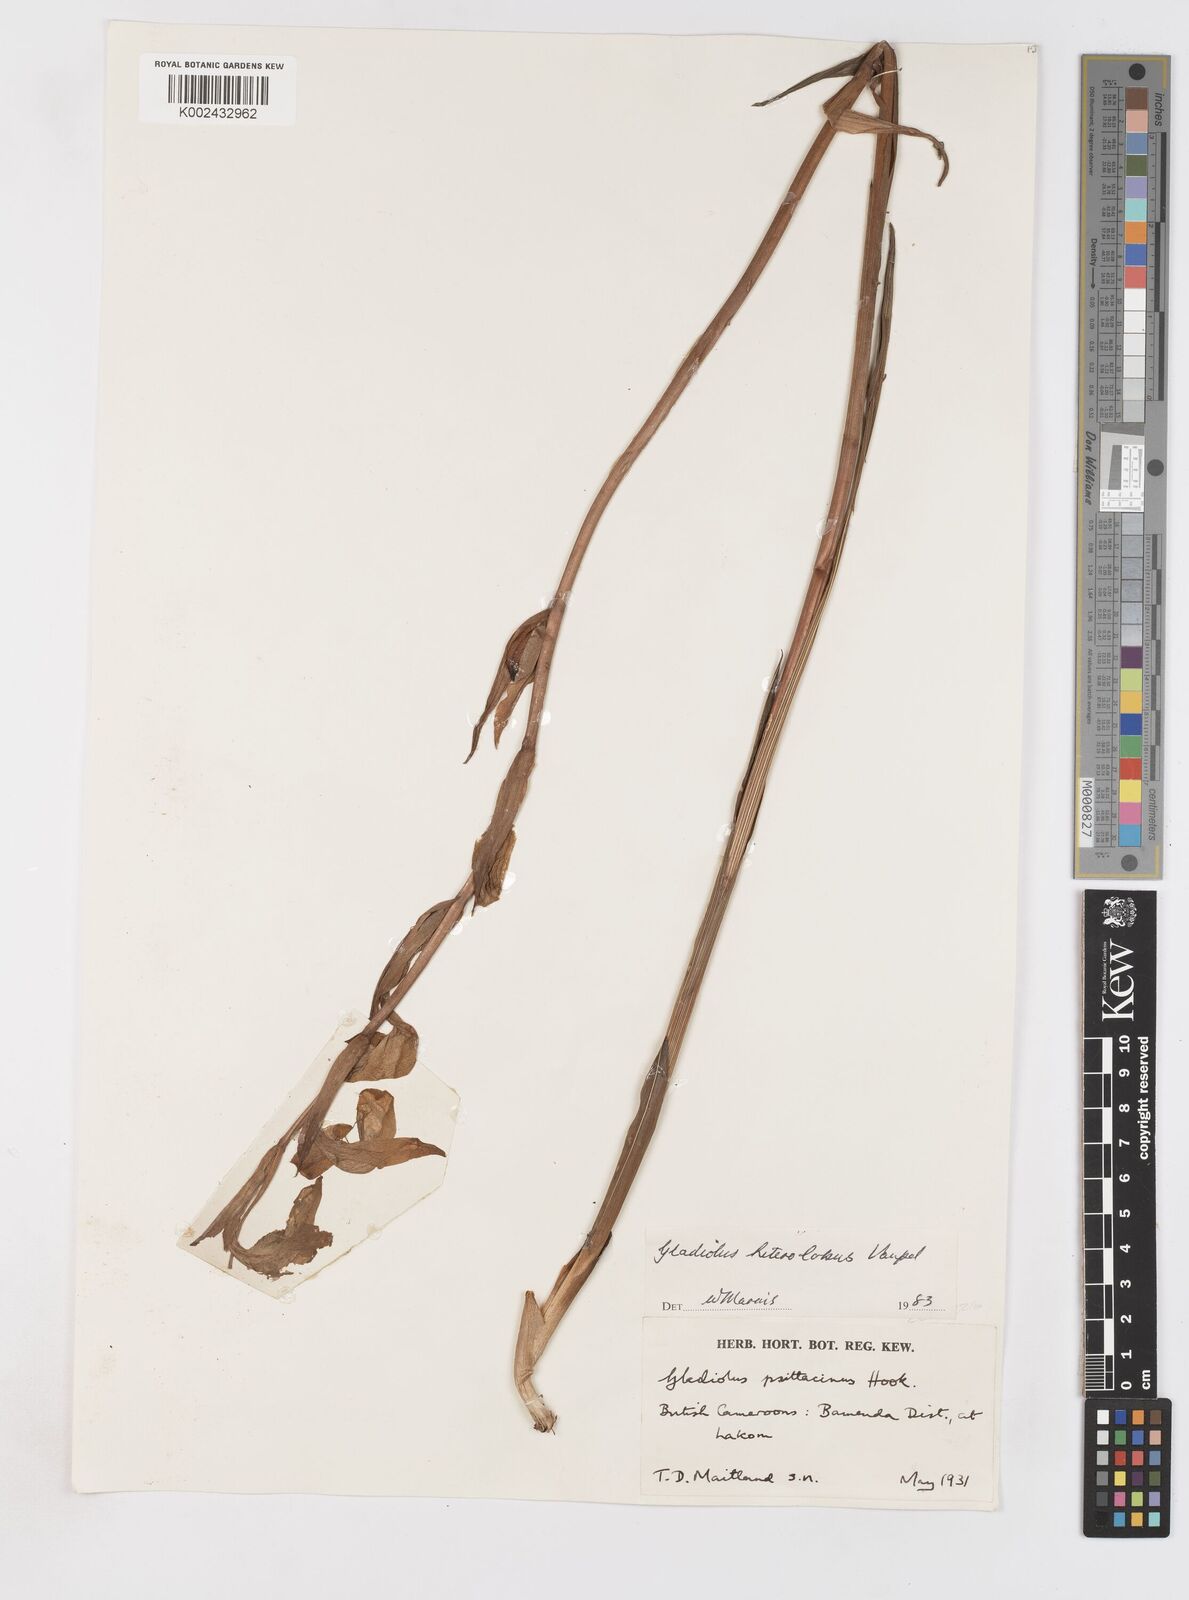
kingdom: Plantae
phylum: Tracheophyta
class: Liliopsida
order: Asparagales
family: Iridaceae
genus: Gladiolus
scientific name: Gladiolus roseolus
